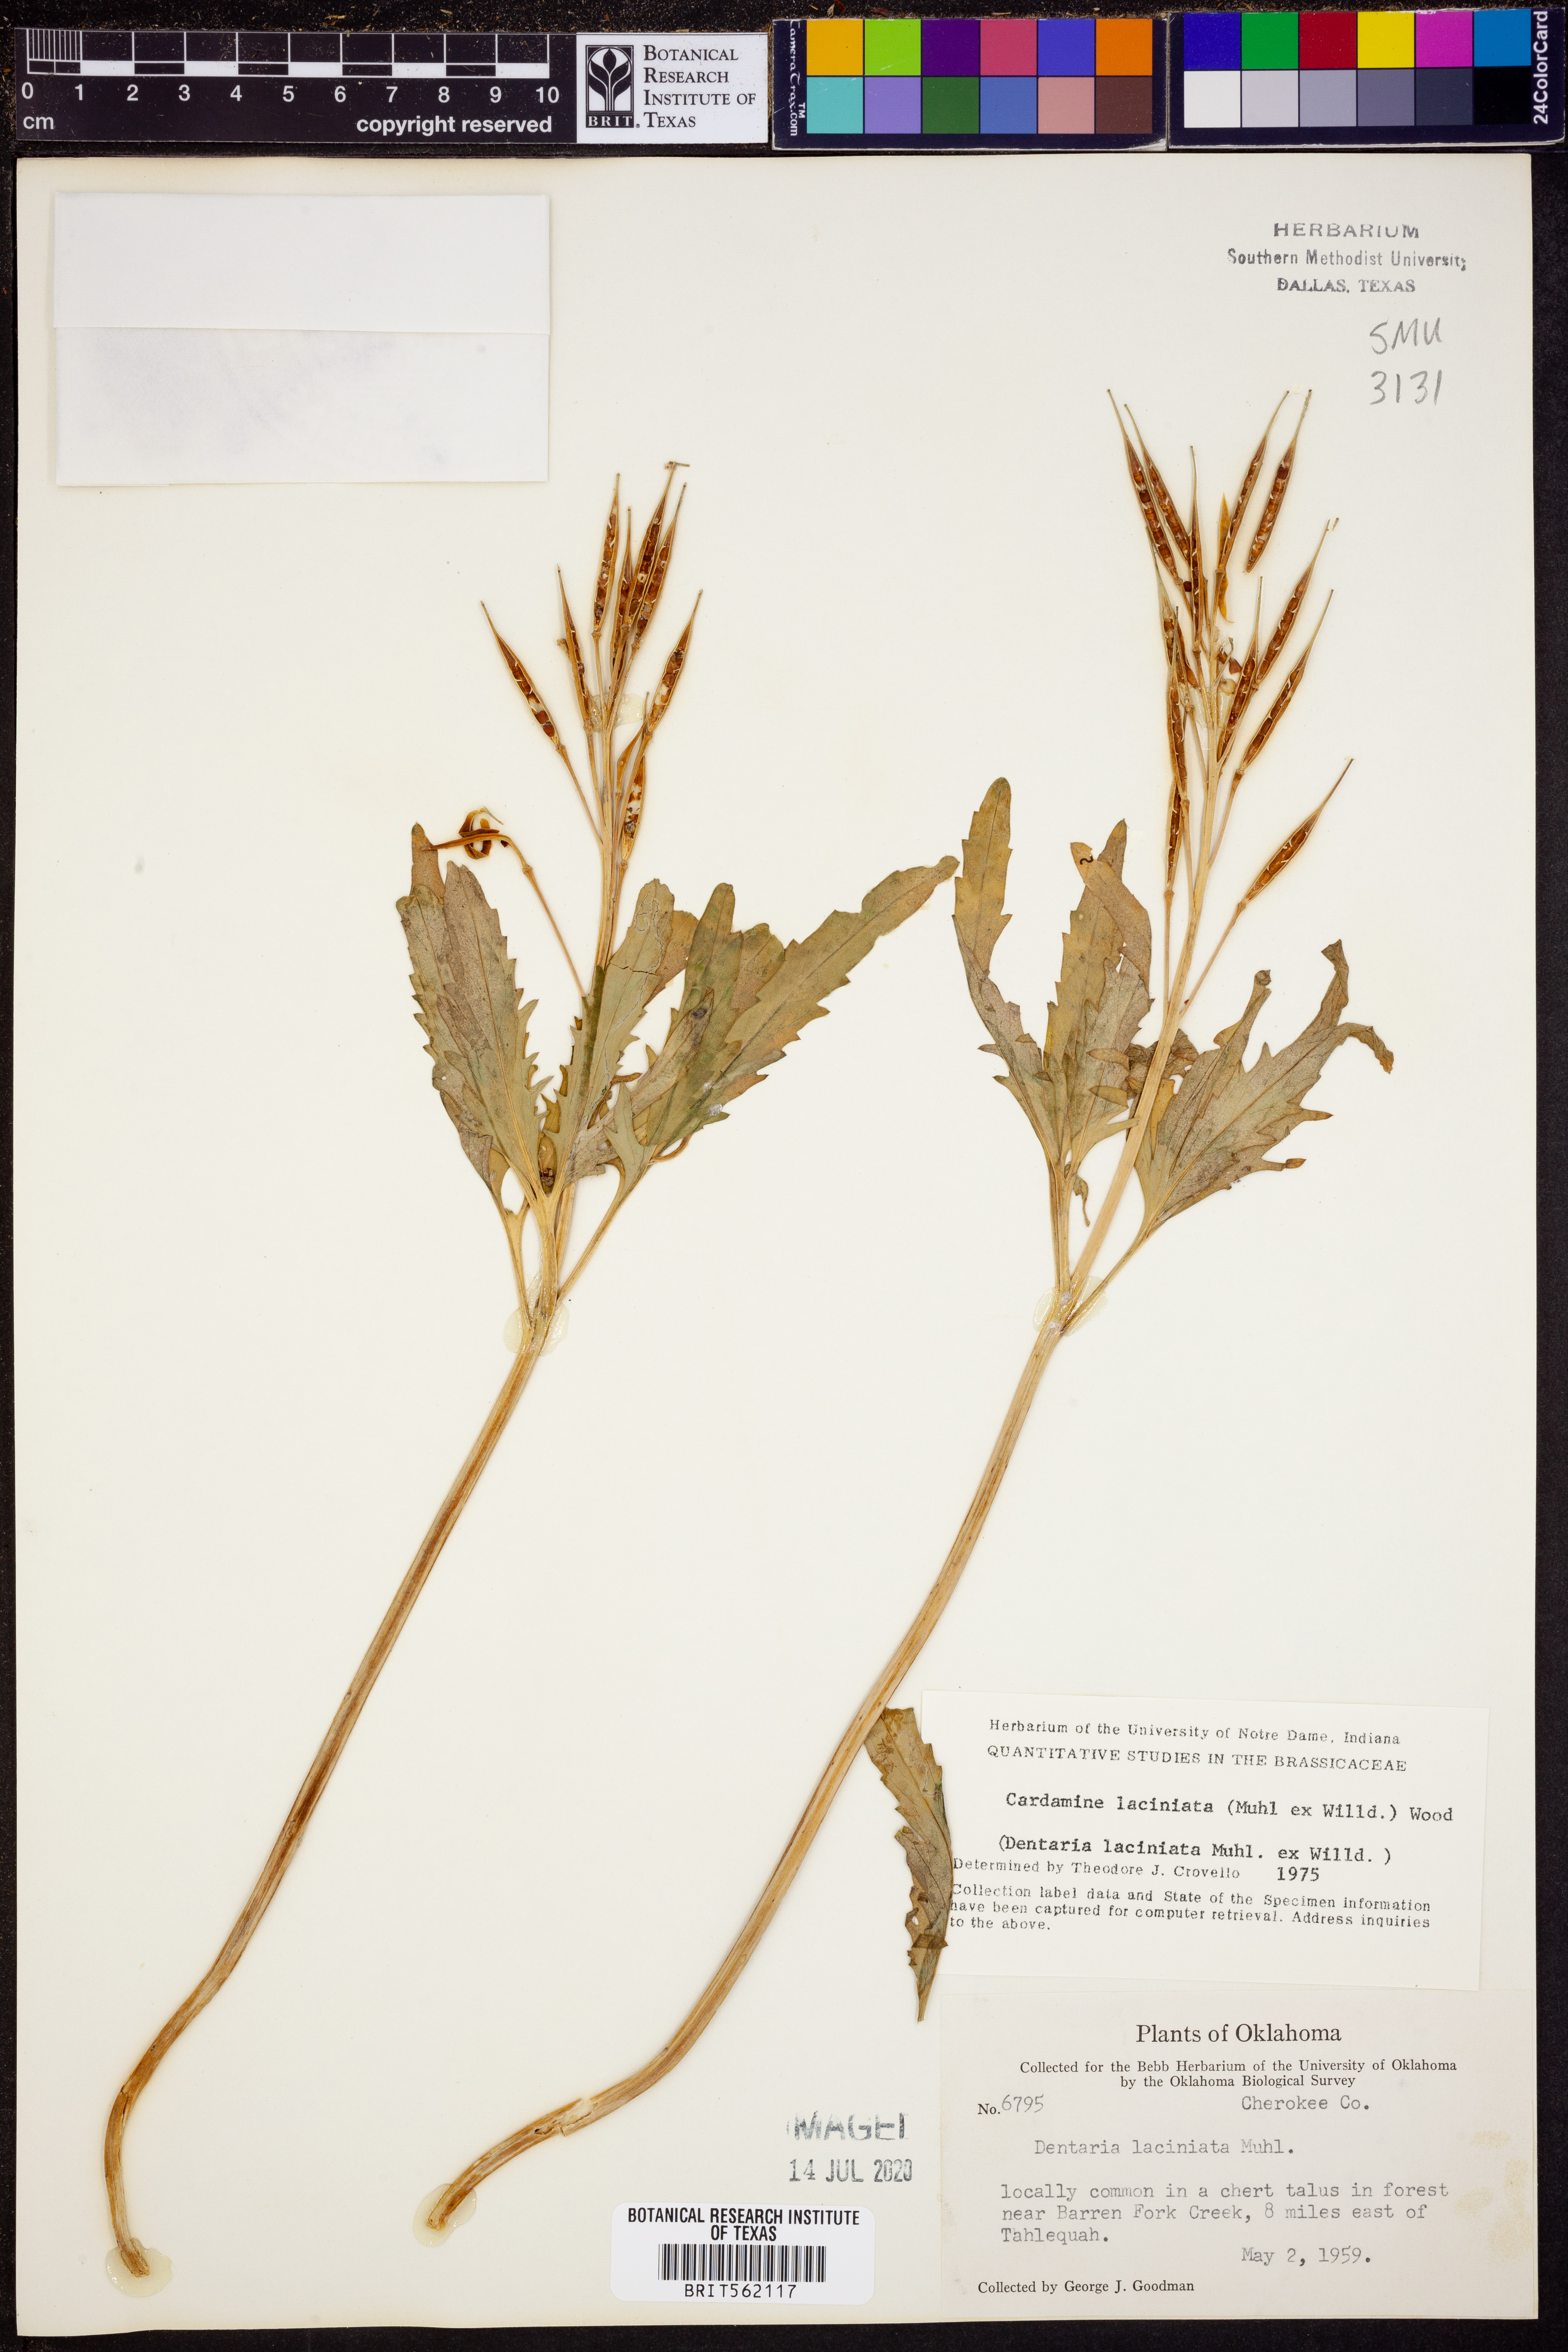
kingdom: Plantae
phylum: Tracheophyta
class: Magnoliopsida
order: Brassicales
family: Brassicaceae
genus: Rorippa
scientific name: Rorippa laciniata
